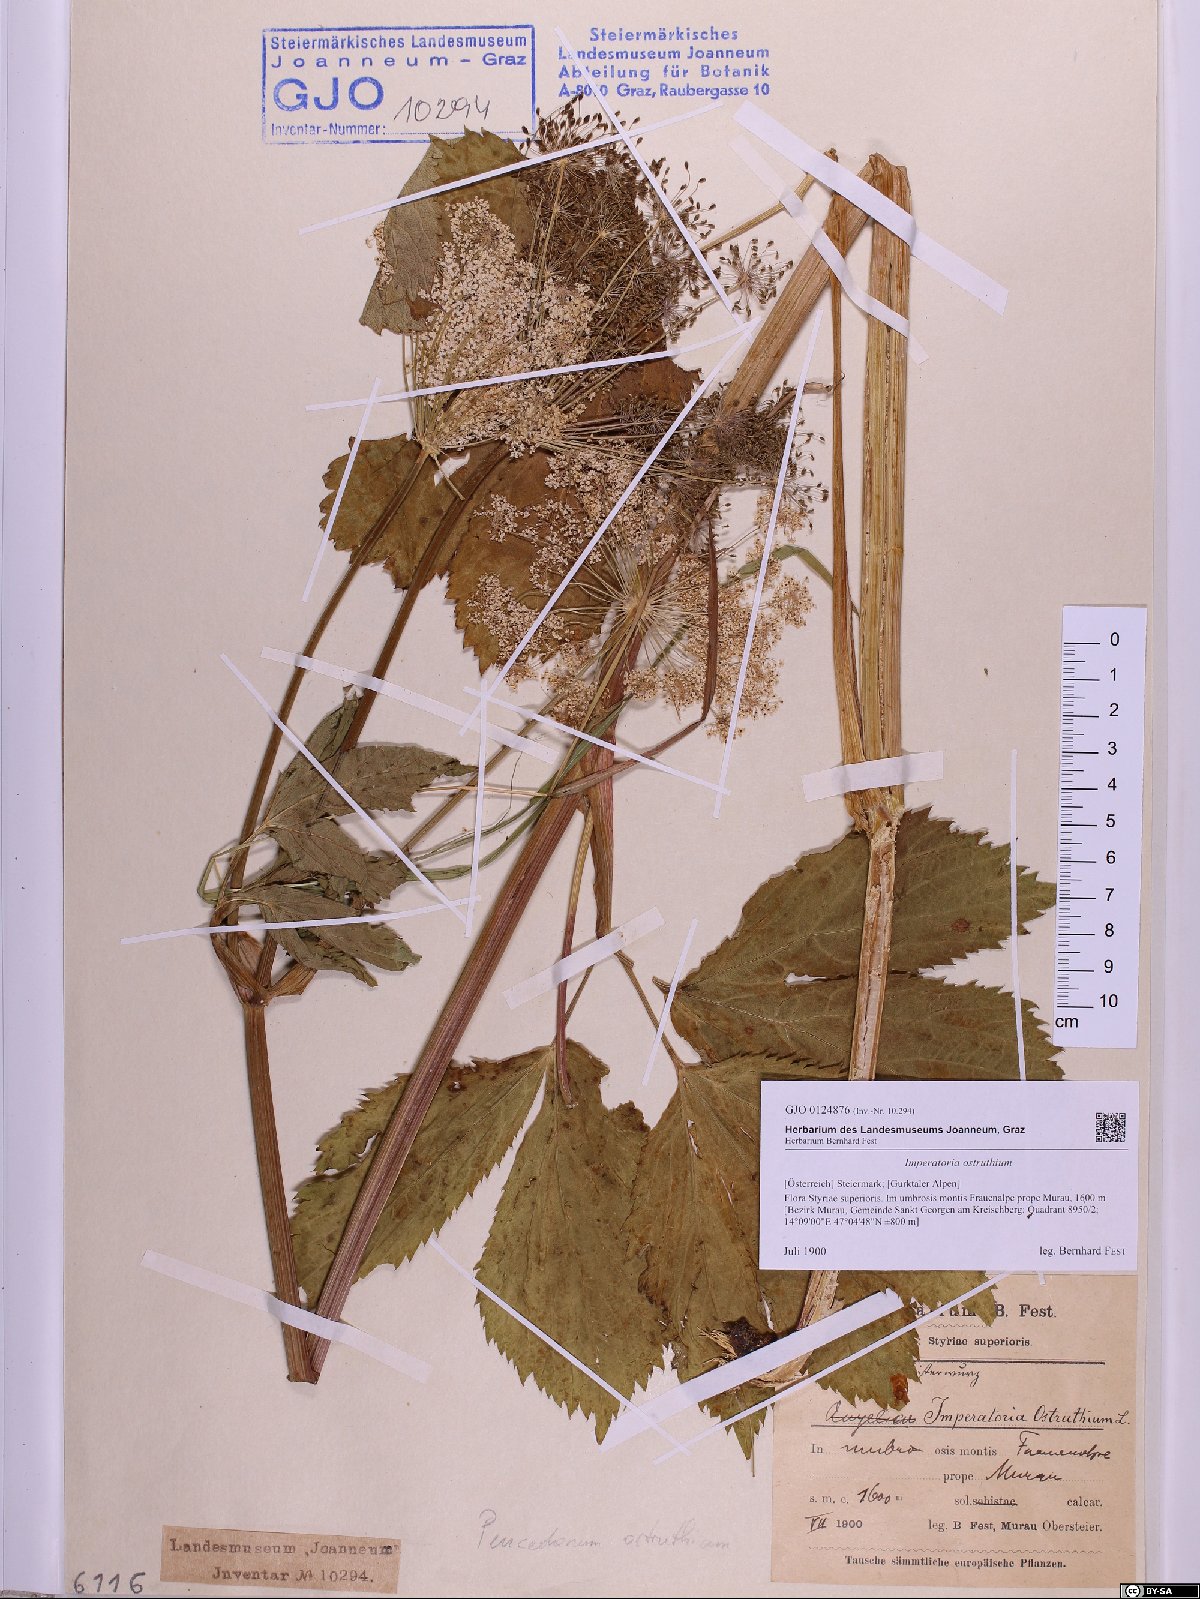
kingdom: Plantae
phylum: Tracheophyta
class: Magnoliopsida
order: Apiales
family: Apiaceae
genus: Imperatoria
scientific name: Imperatoria ostruthium
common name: Masterwort
